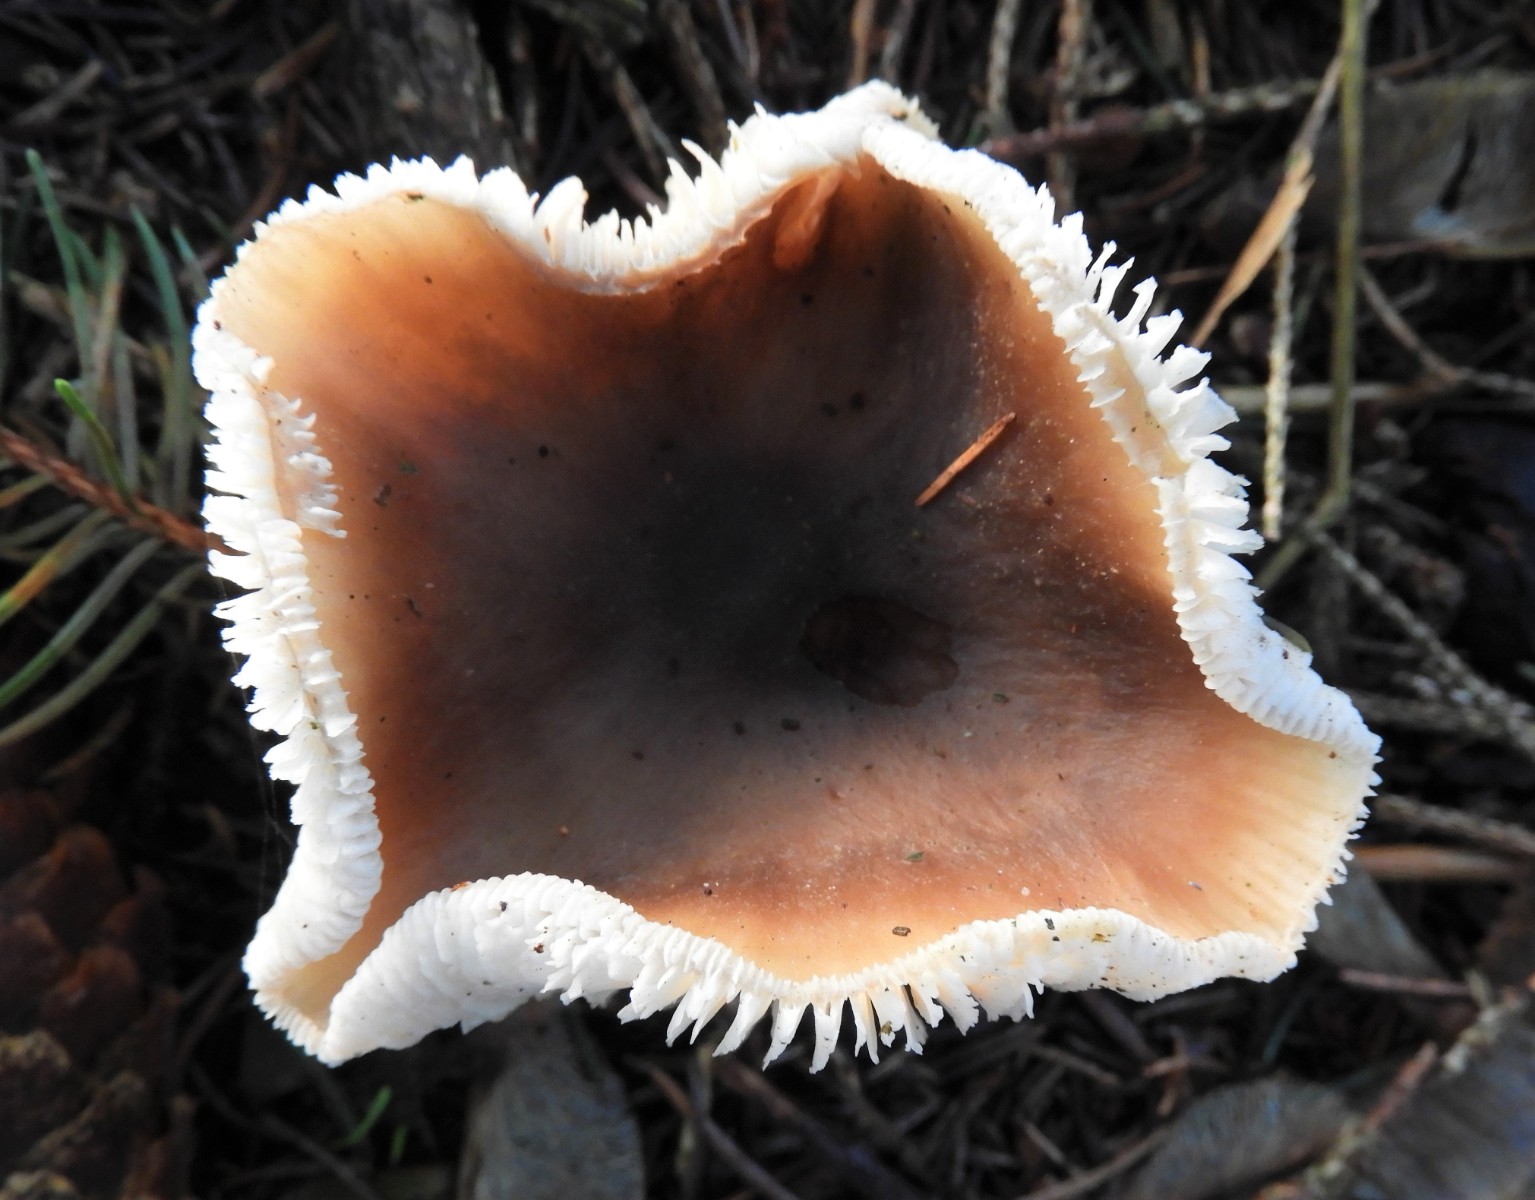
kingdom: Fungi
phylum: Basidiomycota
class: Agaricomycetes
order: Agaricales
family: Omphalotaceae
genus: Rhodocollybia
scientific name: Rhodocollybia asema
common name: horngrå fladhat
